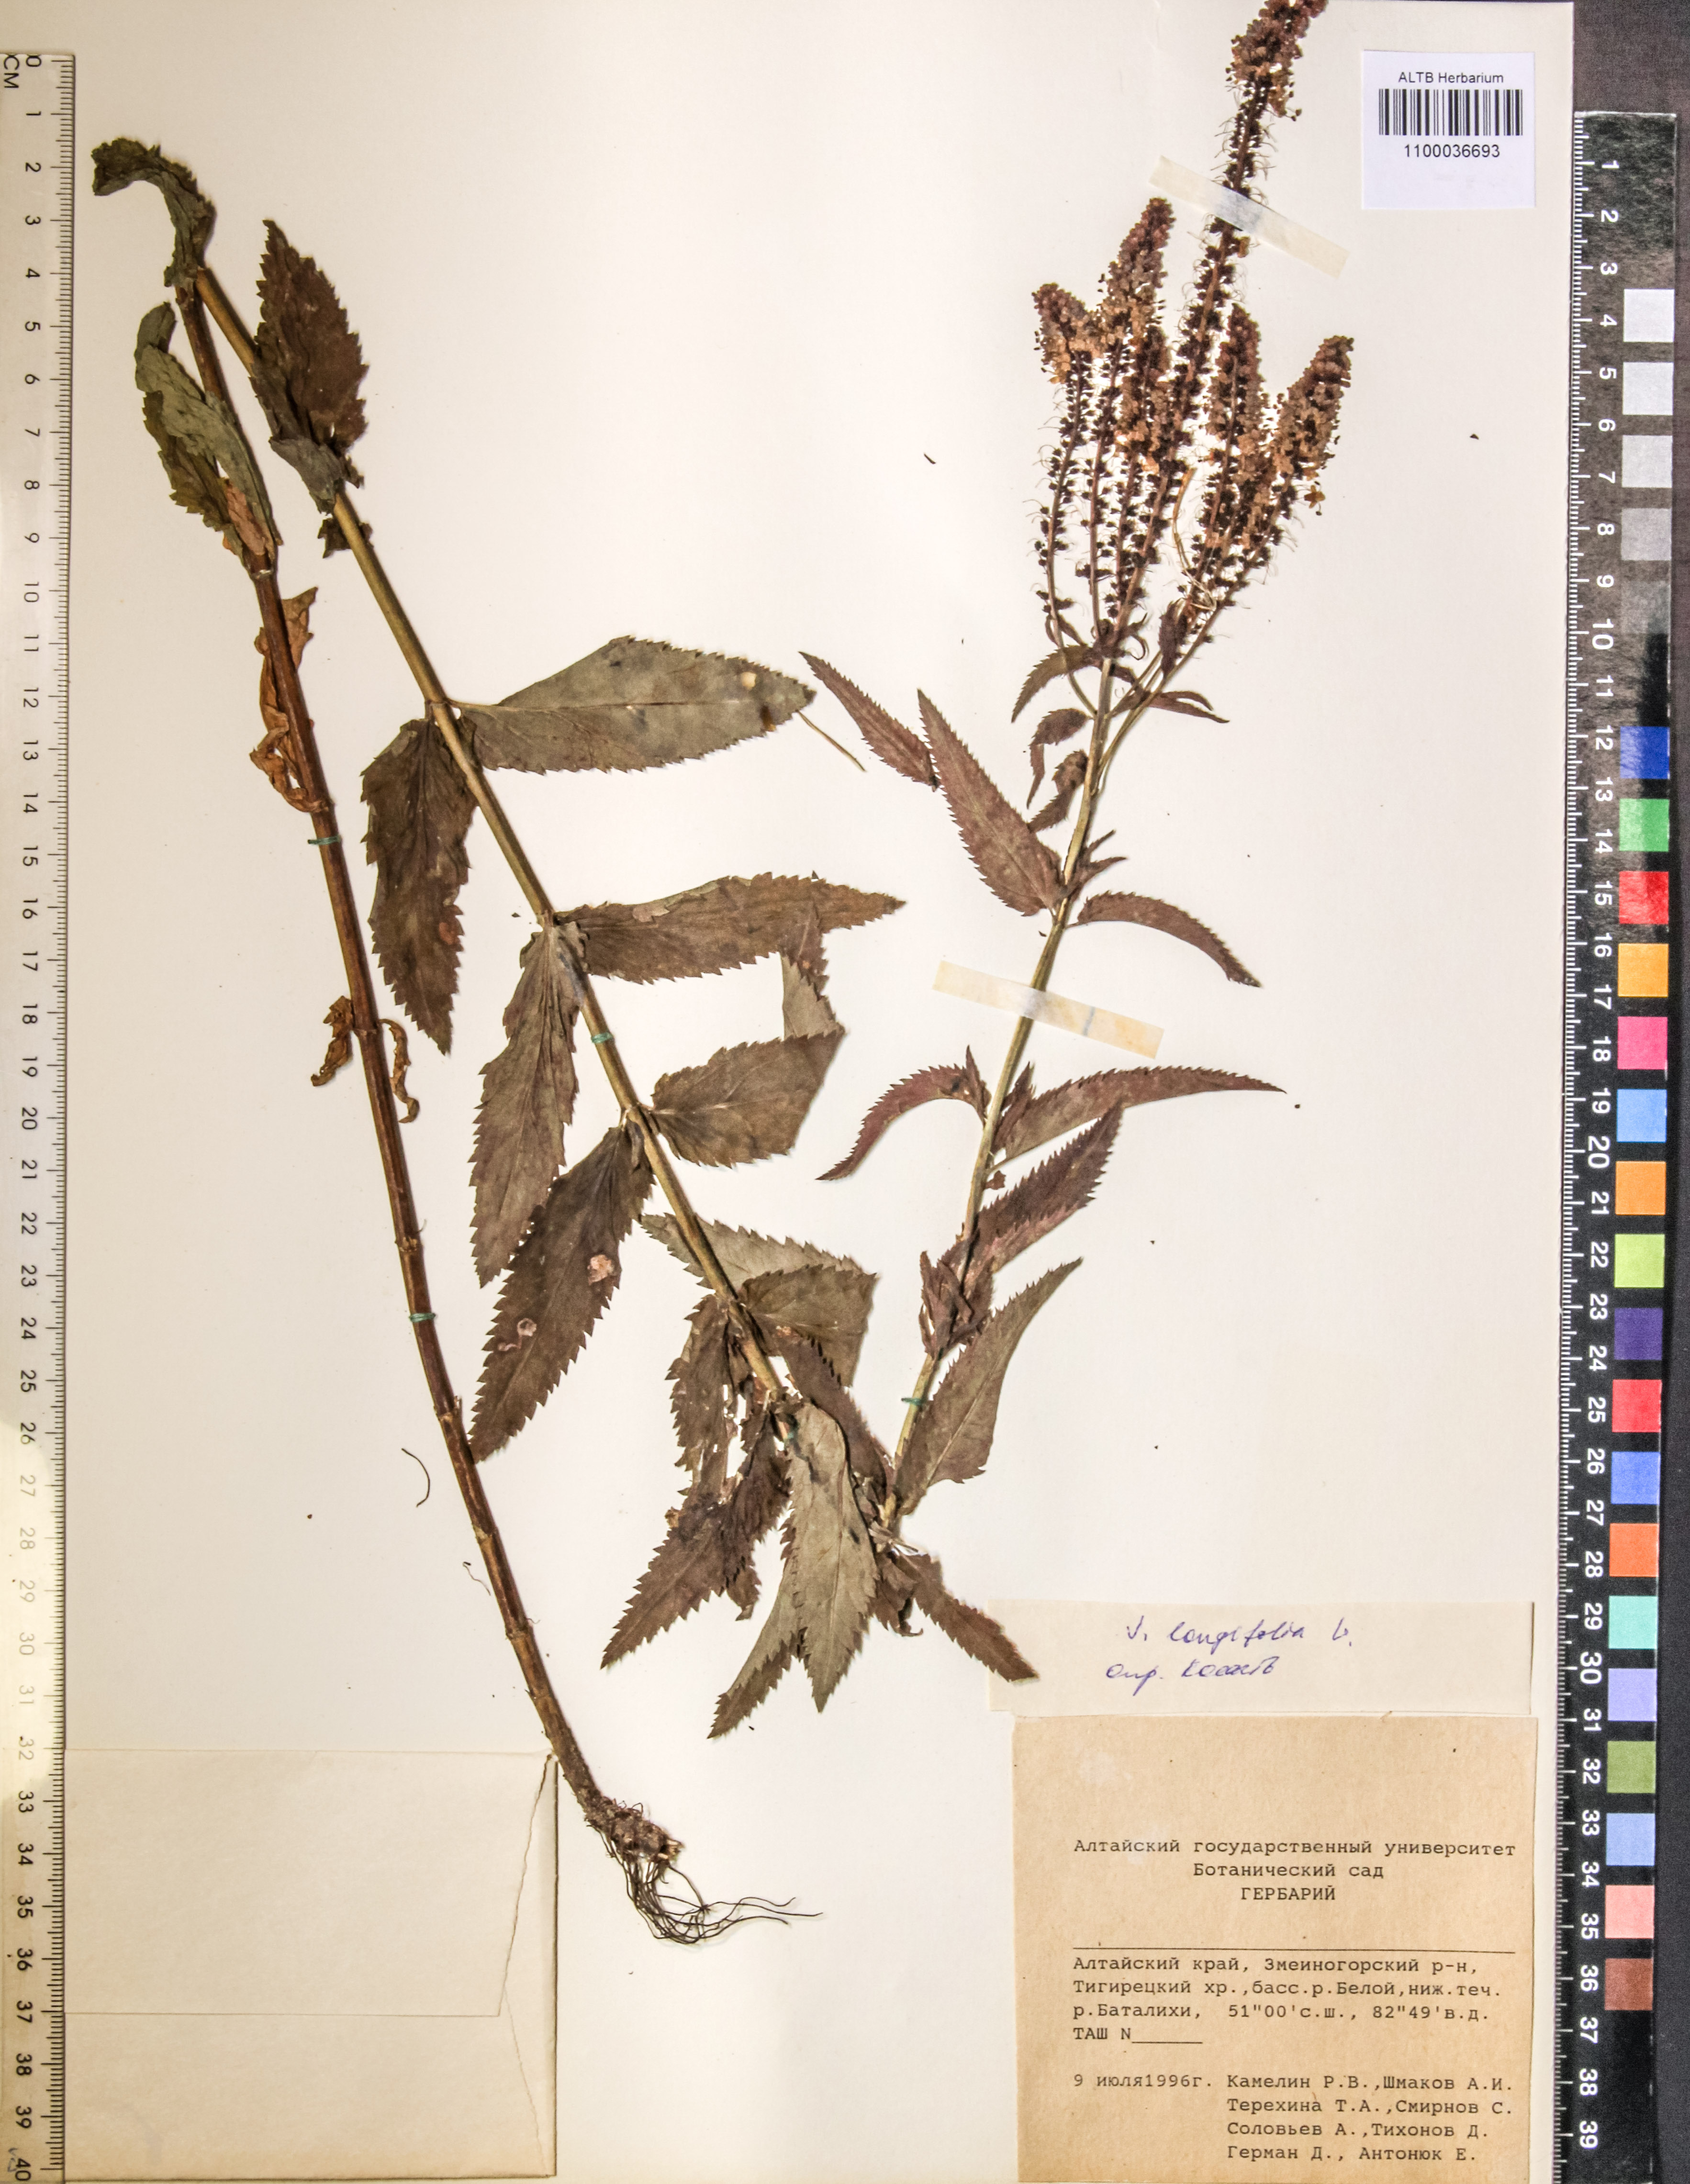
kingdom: Plantae
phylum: Tracheophyta
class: Magnoliopsida
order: Lamiales
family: Plantaginaceae
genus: Veronica
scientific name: Veronica longifolia
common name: Garden speedwell
